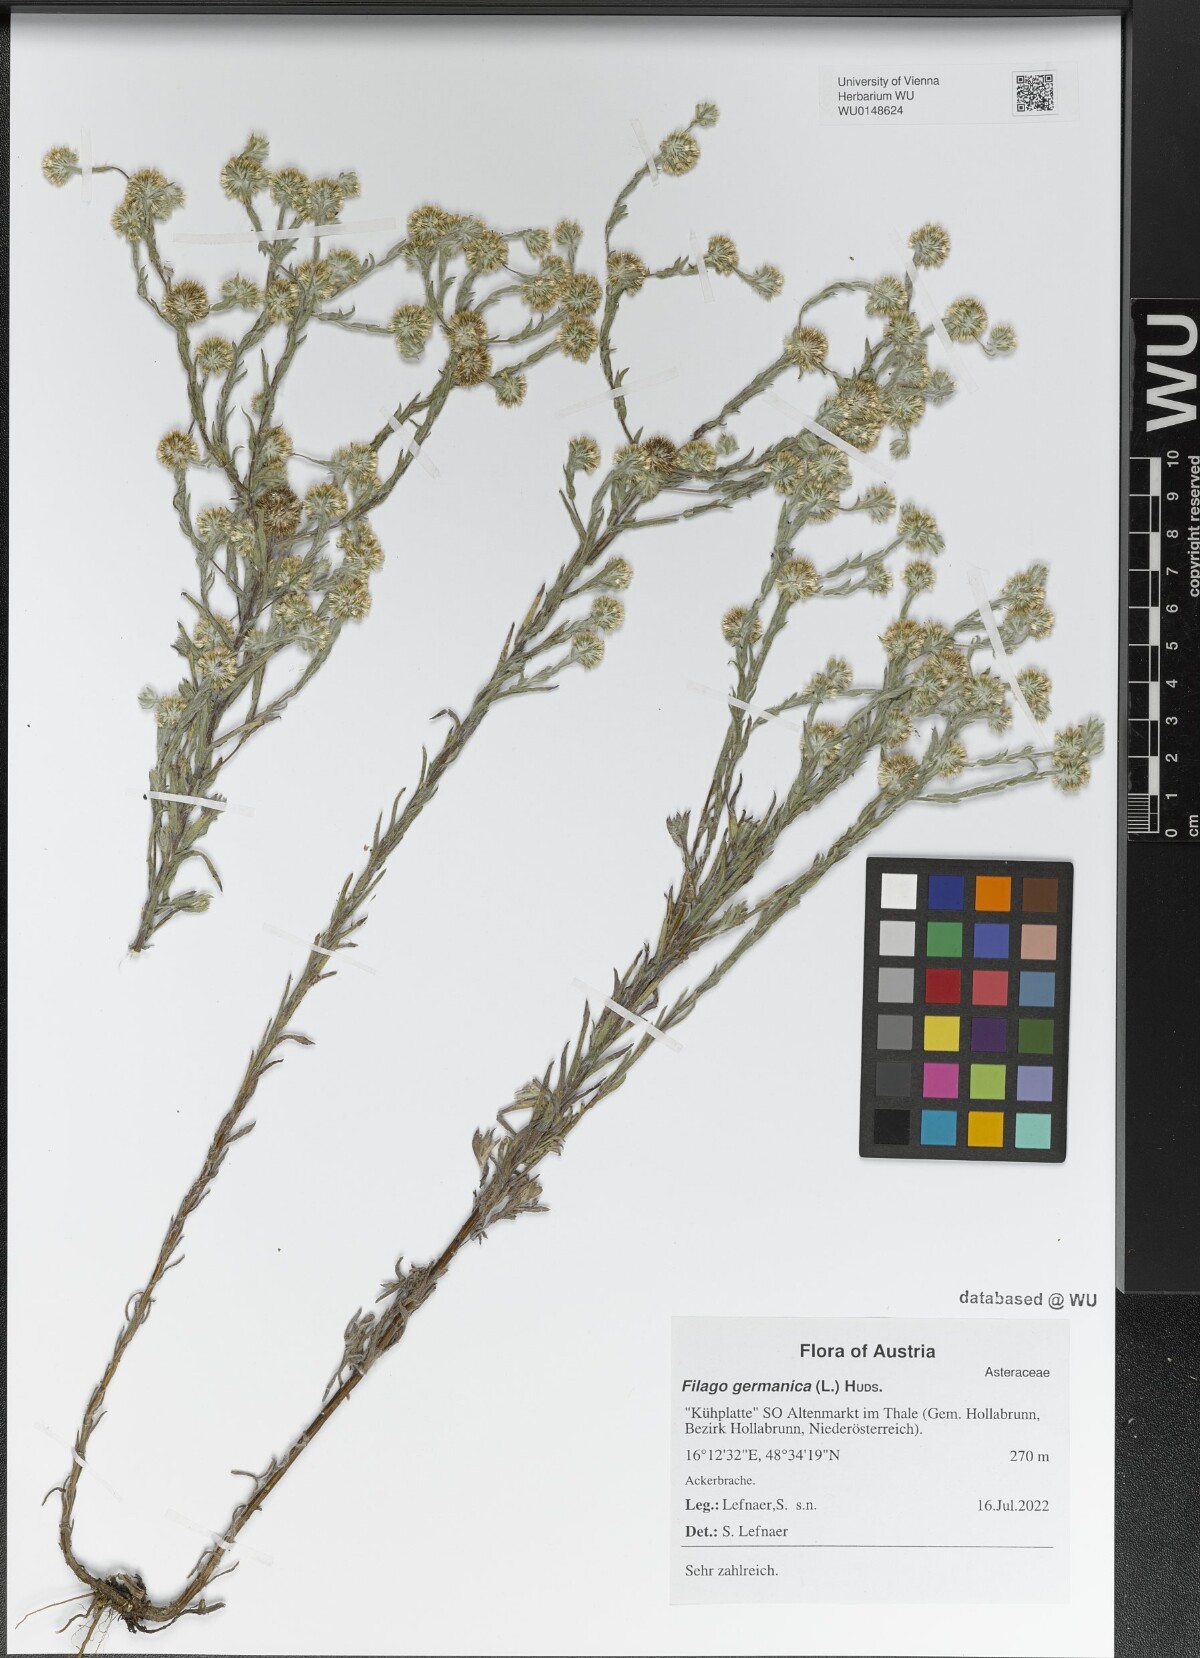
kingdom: Plantae
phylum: Tracheophyta
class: Magnoliopsida
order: Asterales
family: Asteraceae
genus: Filago
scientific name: Filago germanica
